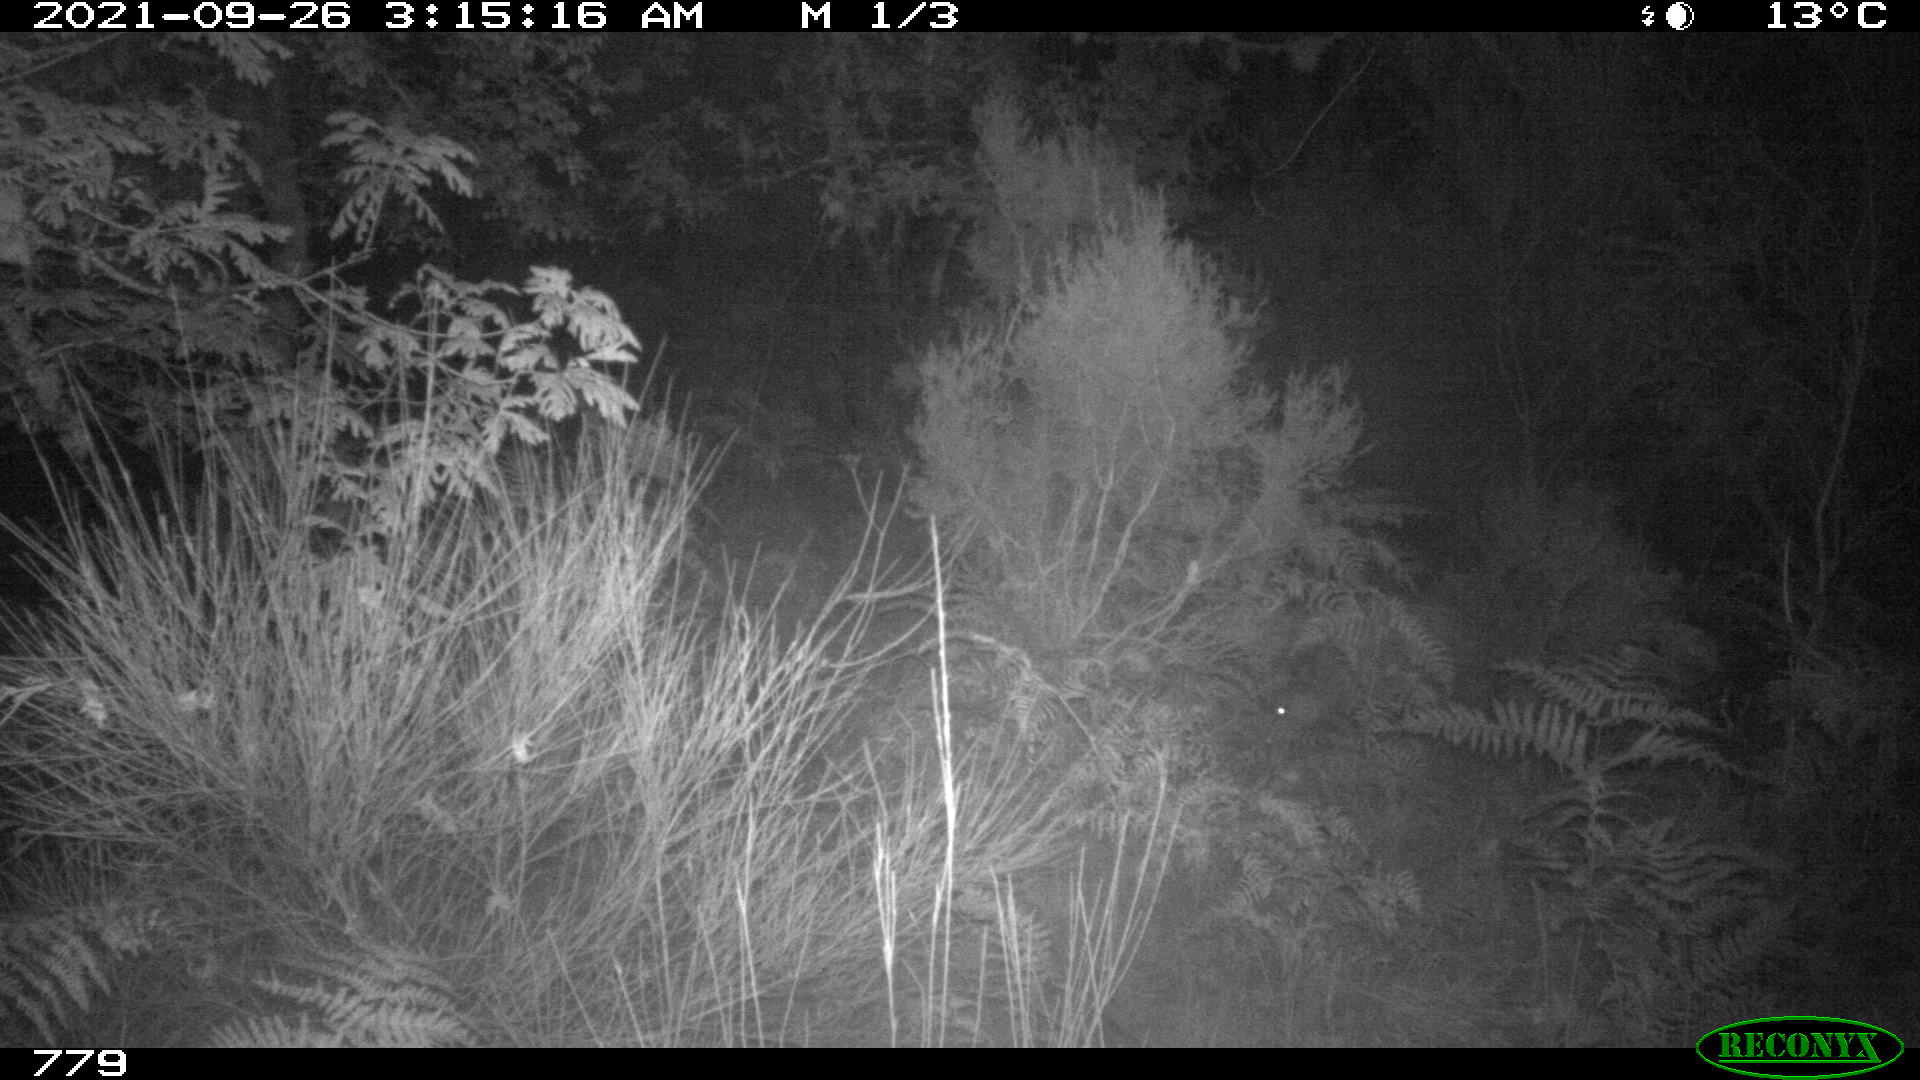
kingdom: Animalia
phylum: Chordata
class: Mammalia
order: Artiodactyla
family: Suidae
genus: Sus
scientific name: Sus scrofa
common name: Wild boar
